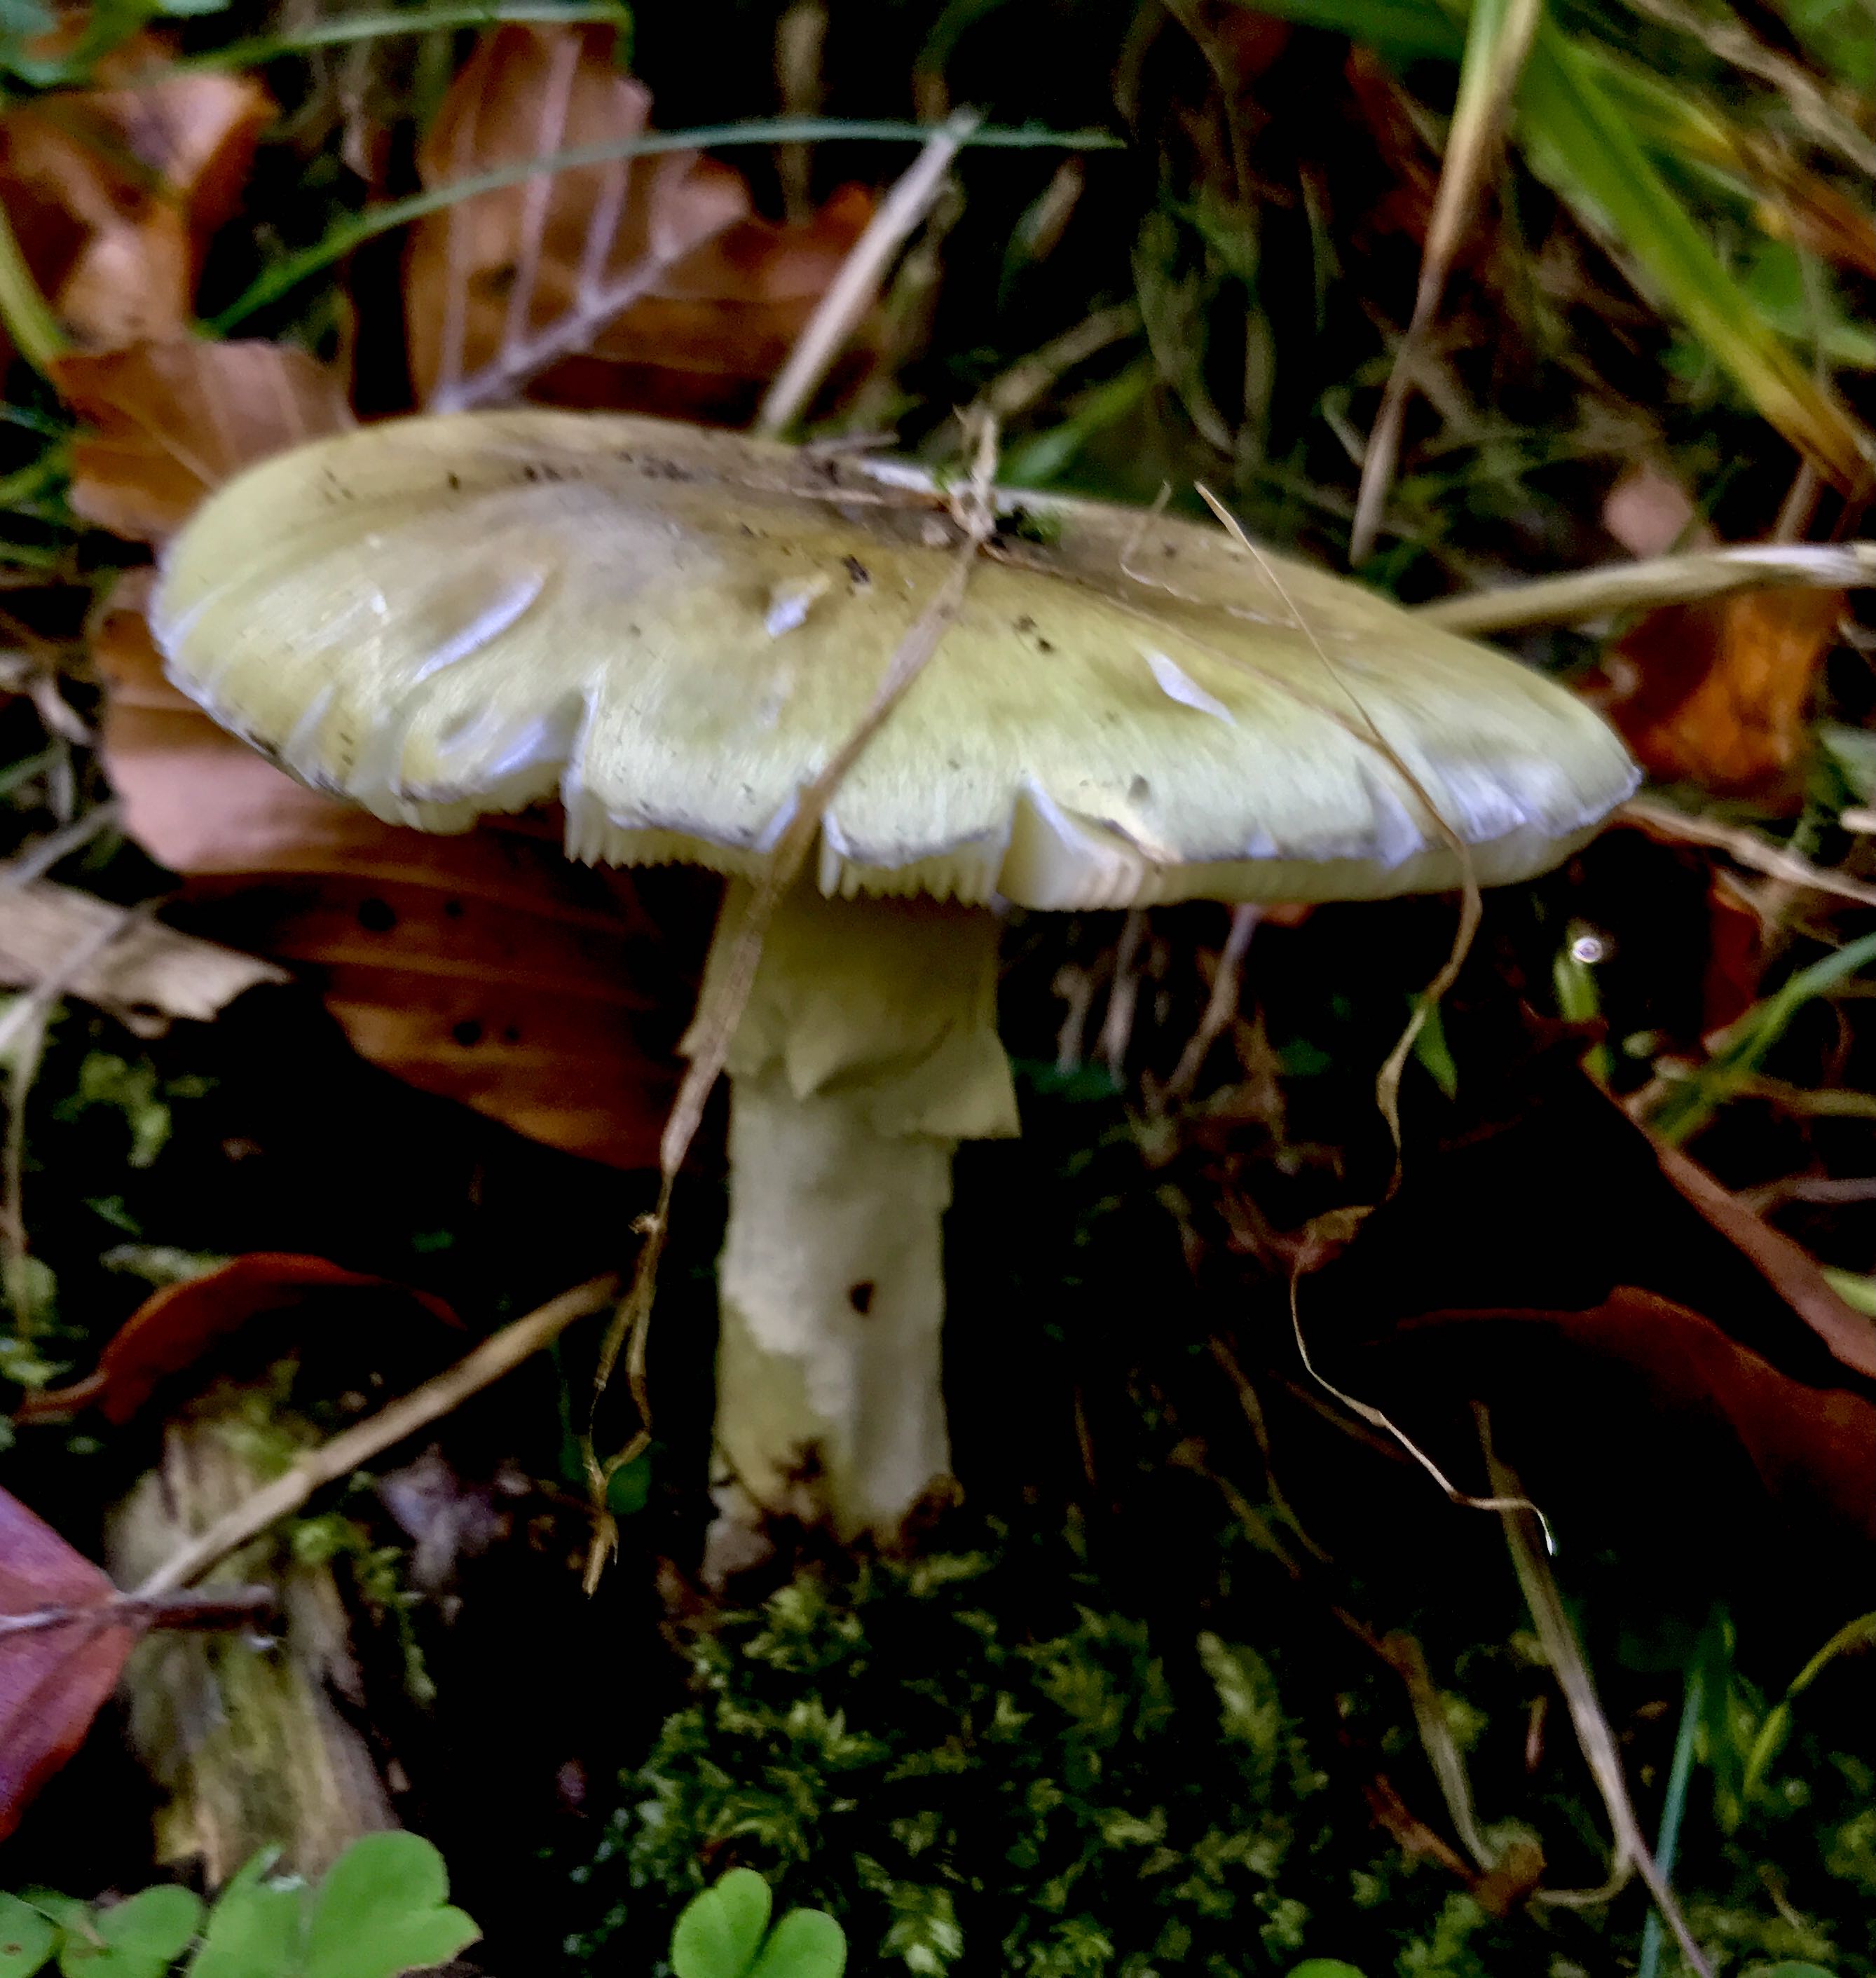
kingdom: Fungi
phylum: Basidiomycota
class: Agaricomycetes
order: Agaricales
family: Amanitaceae
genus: Amanita
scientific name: Amanita phalloides
